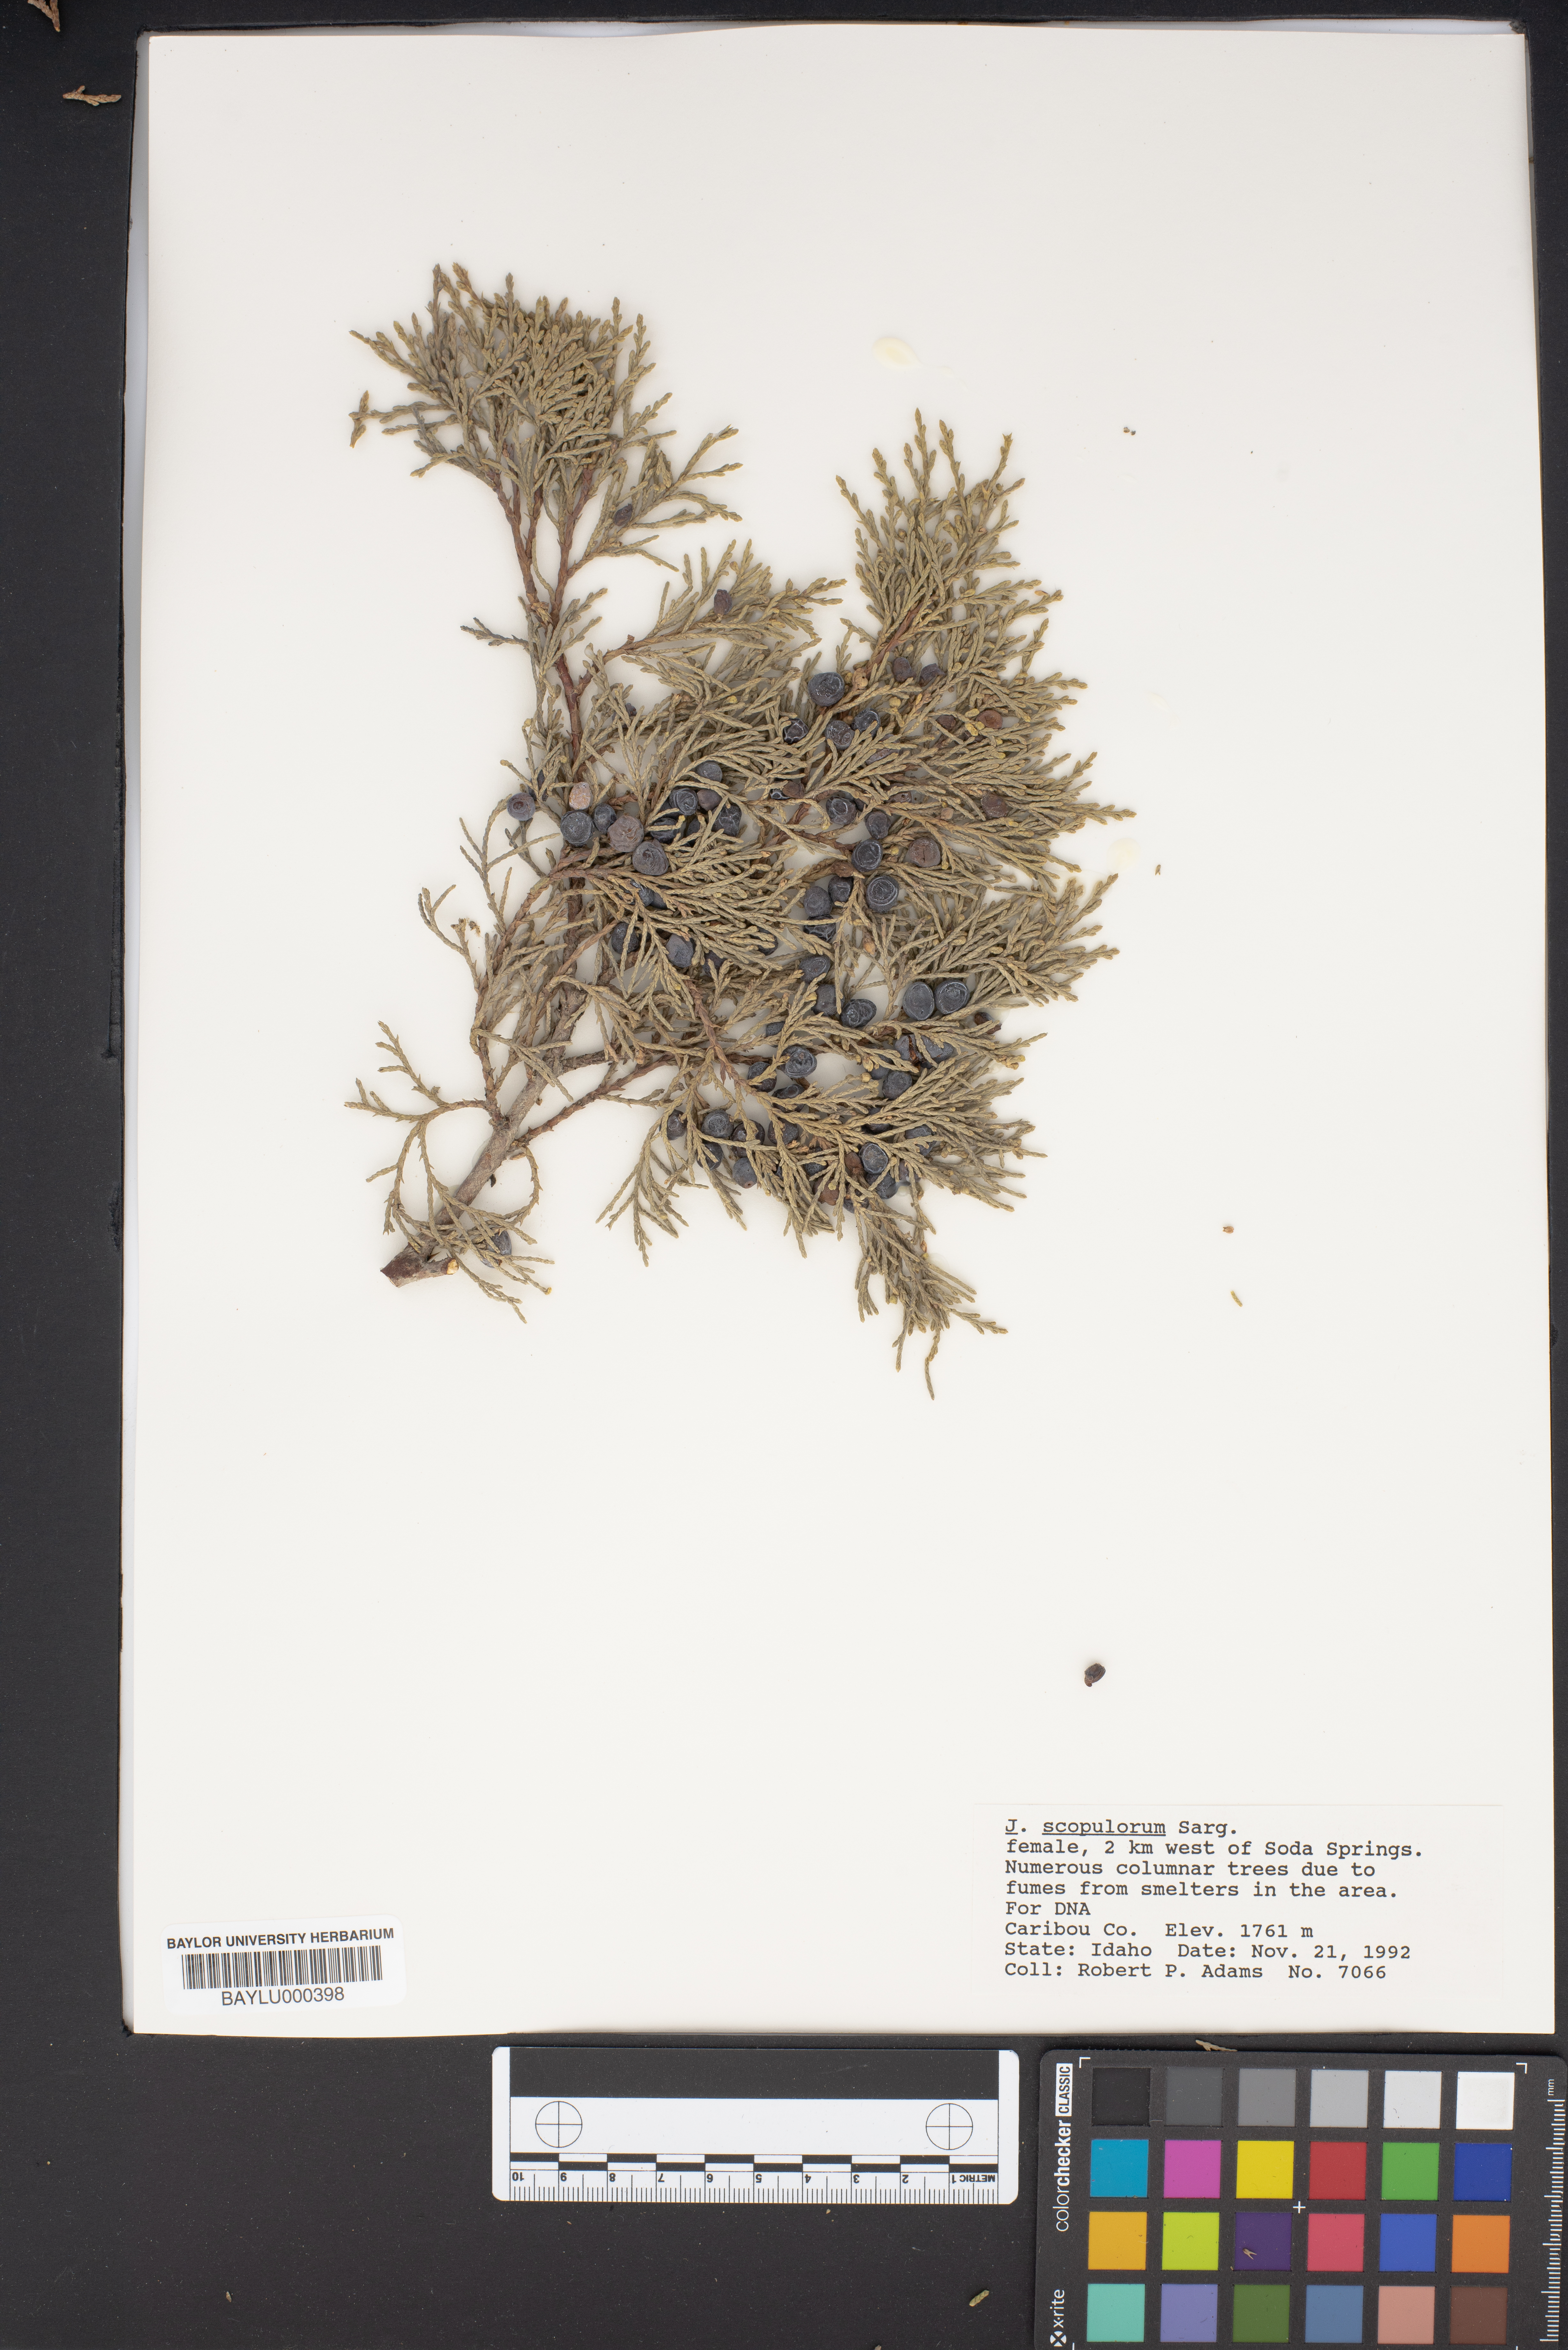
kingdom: Plantae
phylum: Tracheophyta
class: Pinopsida
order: Pinales
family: Cupressaceae
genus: Juniperus
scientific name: Juniperus scopulorum
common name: Rocky mountain juniper
